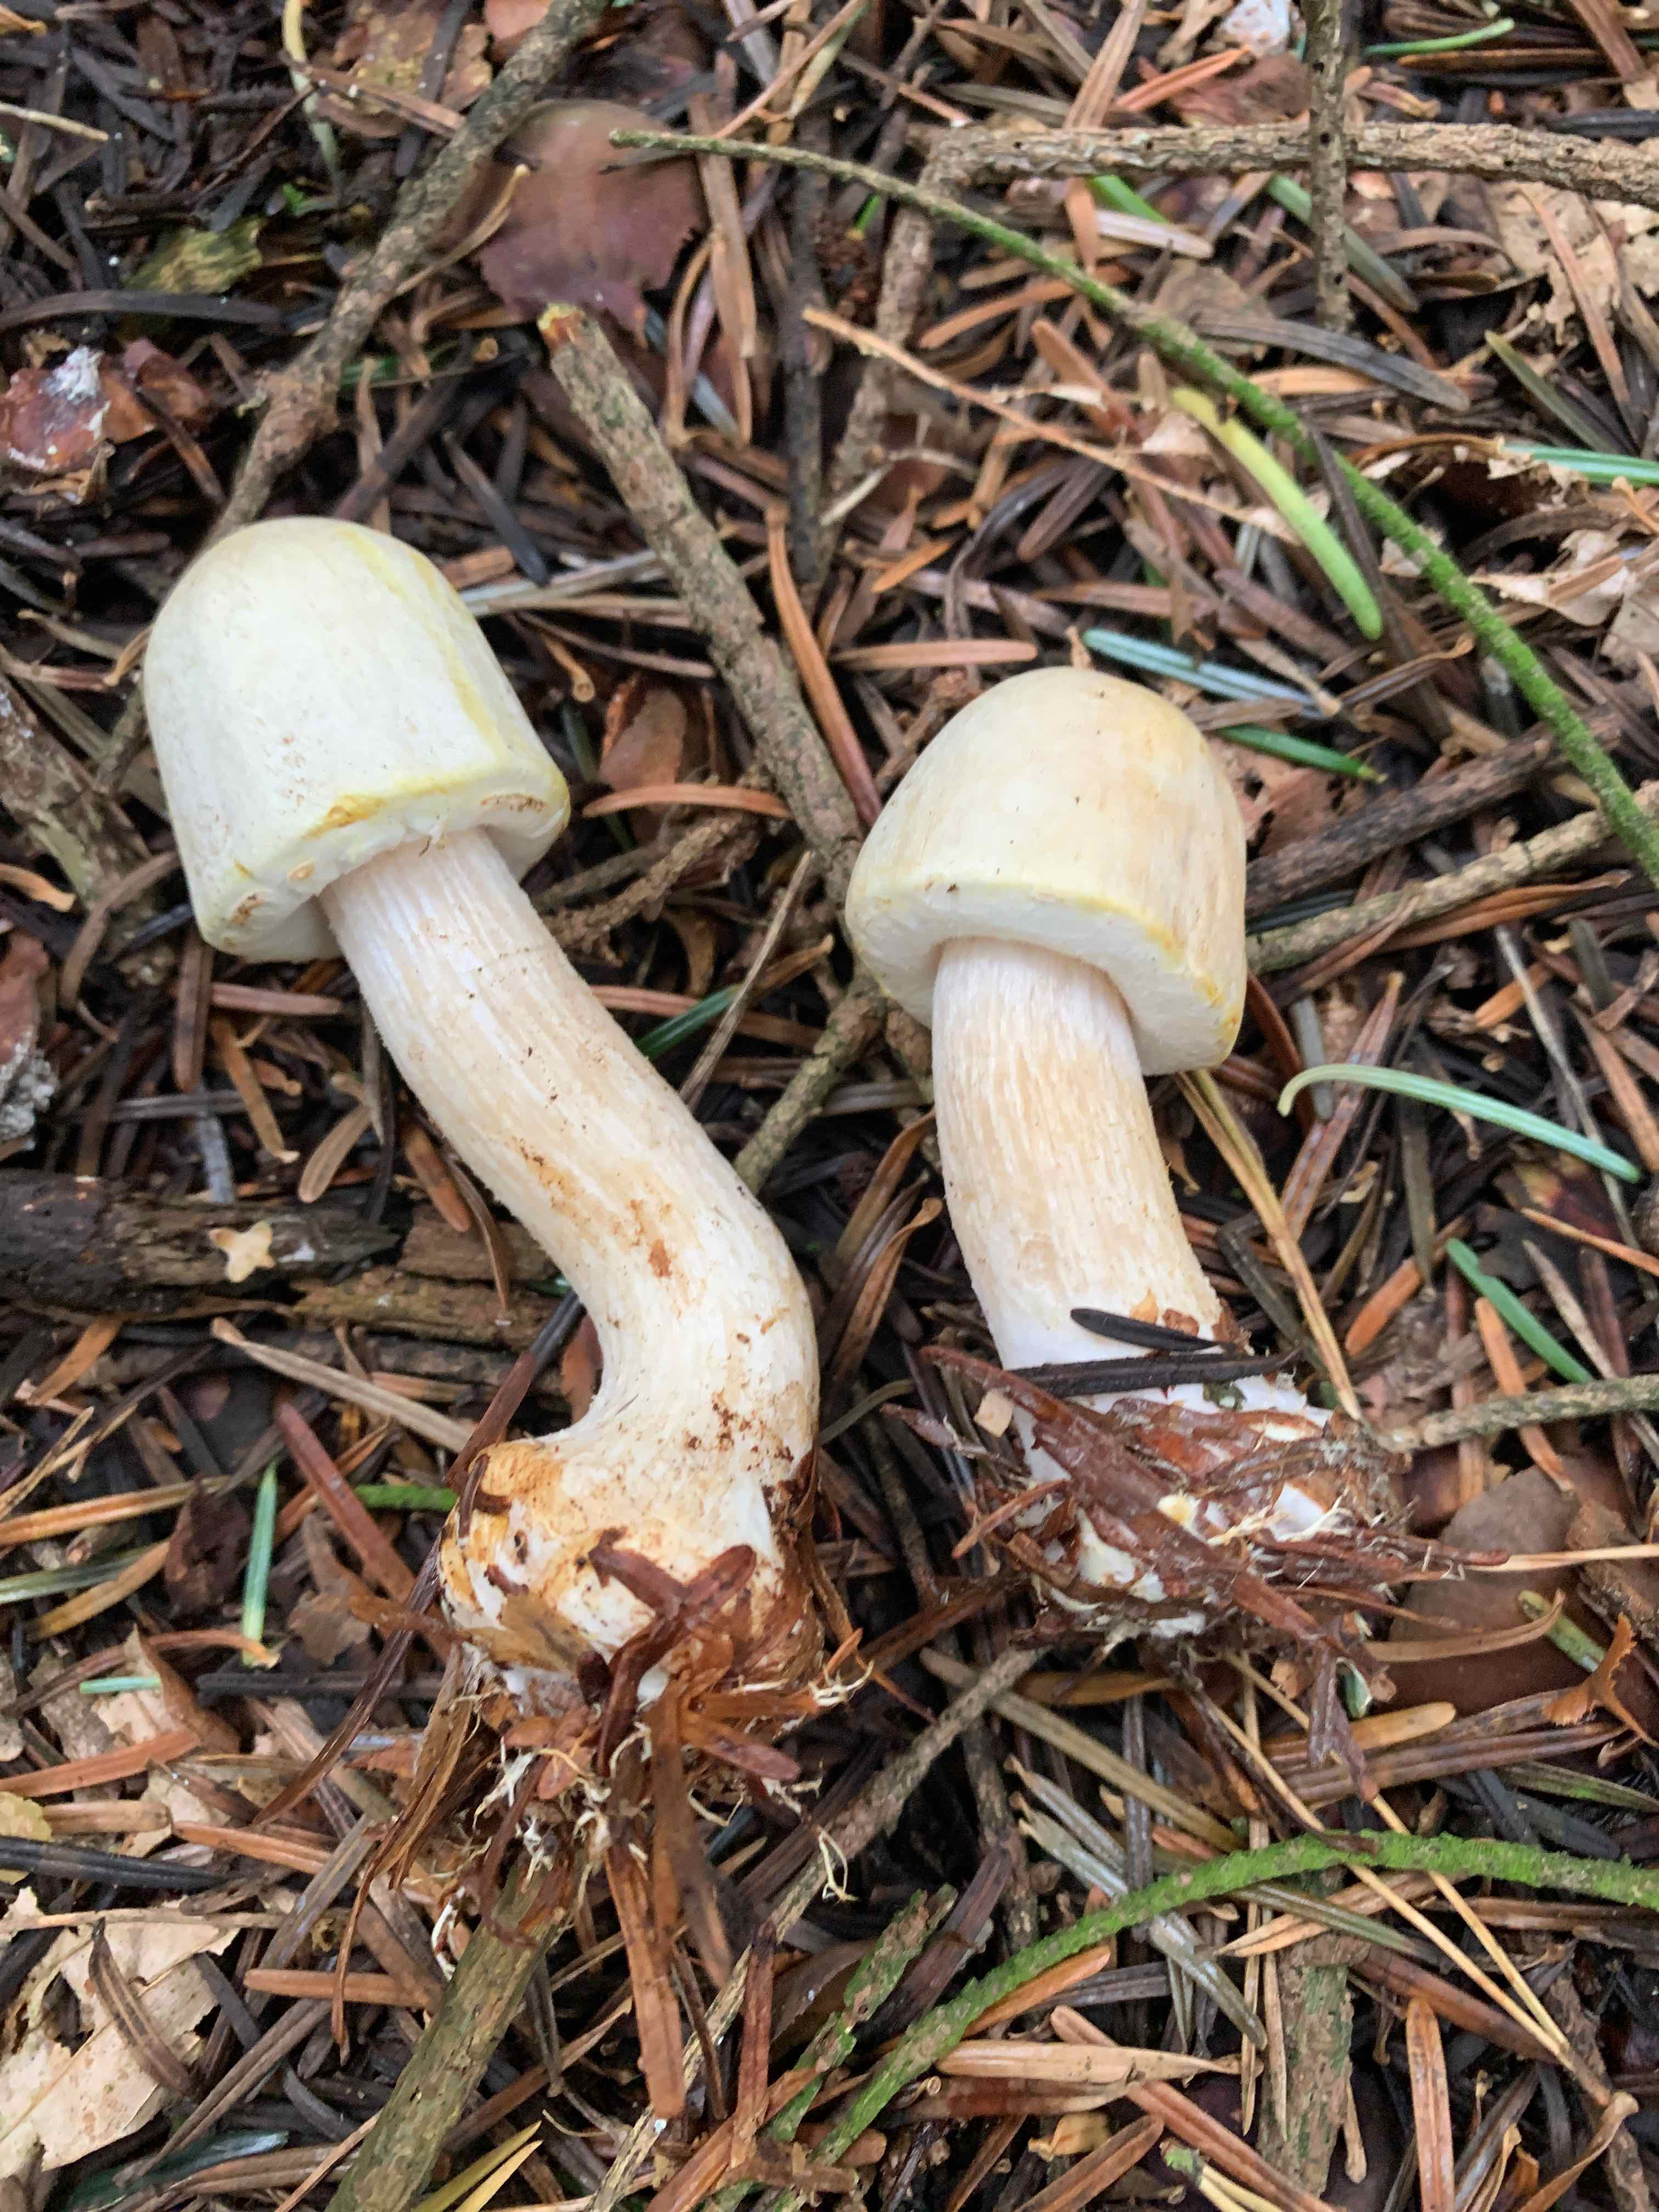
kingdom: Fungi
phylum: Basidiomycota
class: Agaricomycetes
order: Agaricales
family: Agaricaceae
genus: Agaricus
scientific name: Agaricus sylvicola
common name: skiveknoldet champignon
